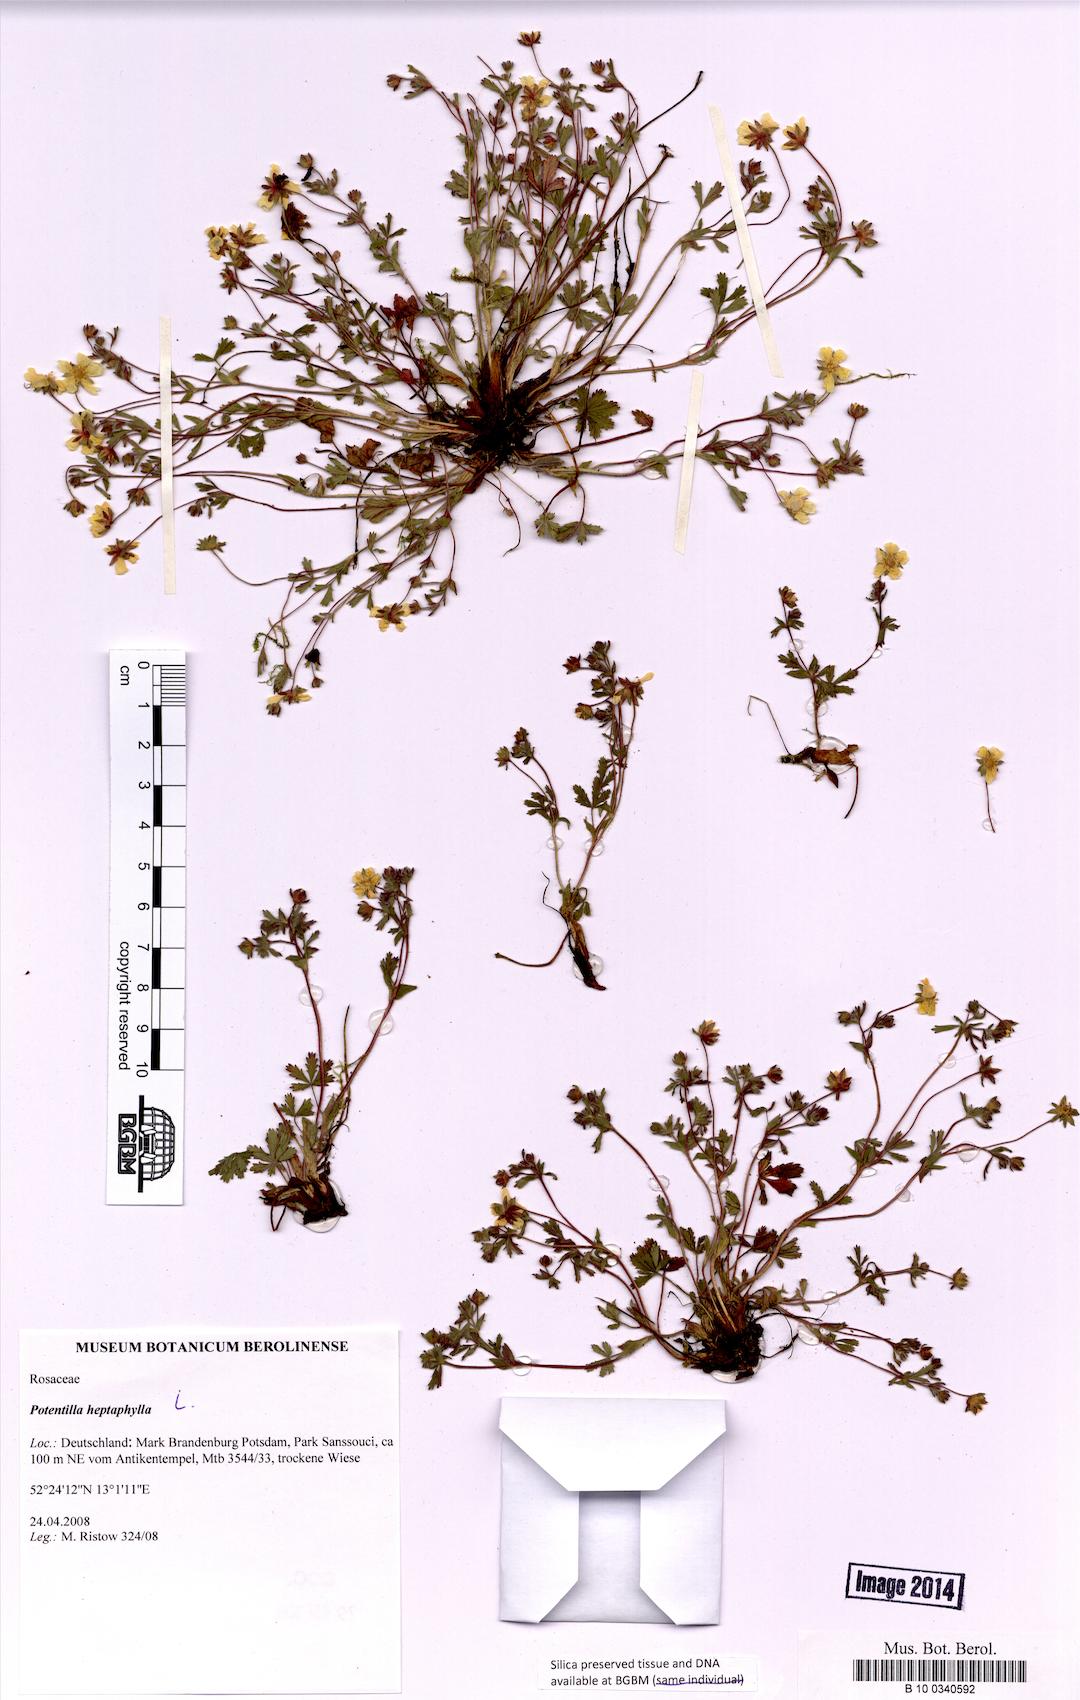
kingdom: Plantae
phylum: Tracheophyta
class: Magnoliopsida
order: Rosales
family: Rosaceae
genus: Potentilla
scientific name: Potentilla heptaphylla
